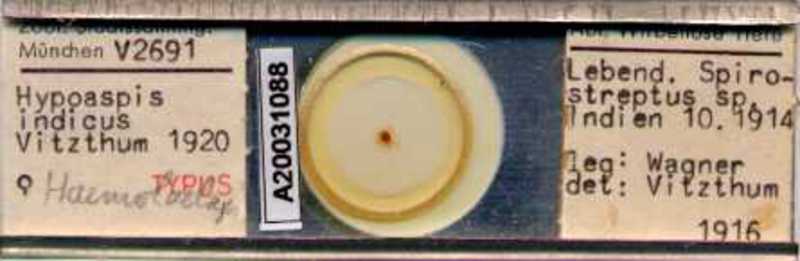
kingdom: Animalia
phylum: Arthropoda
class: Arachnida
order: Mesostigmata
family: Laelapidae
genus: Androlaelaps
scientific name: Androlaelaps
